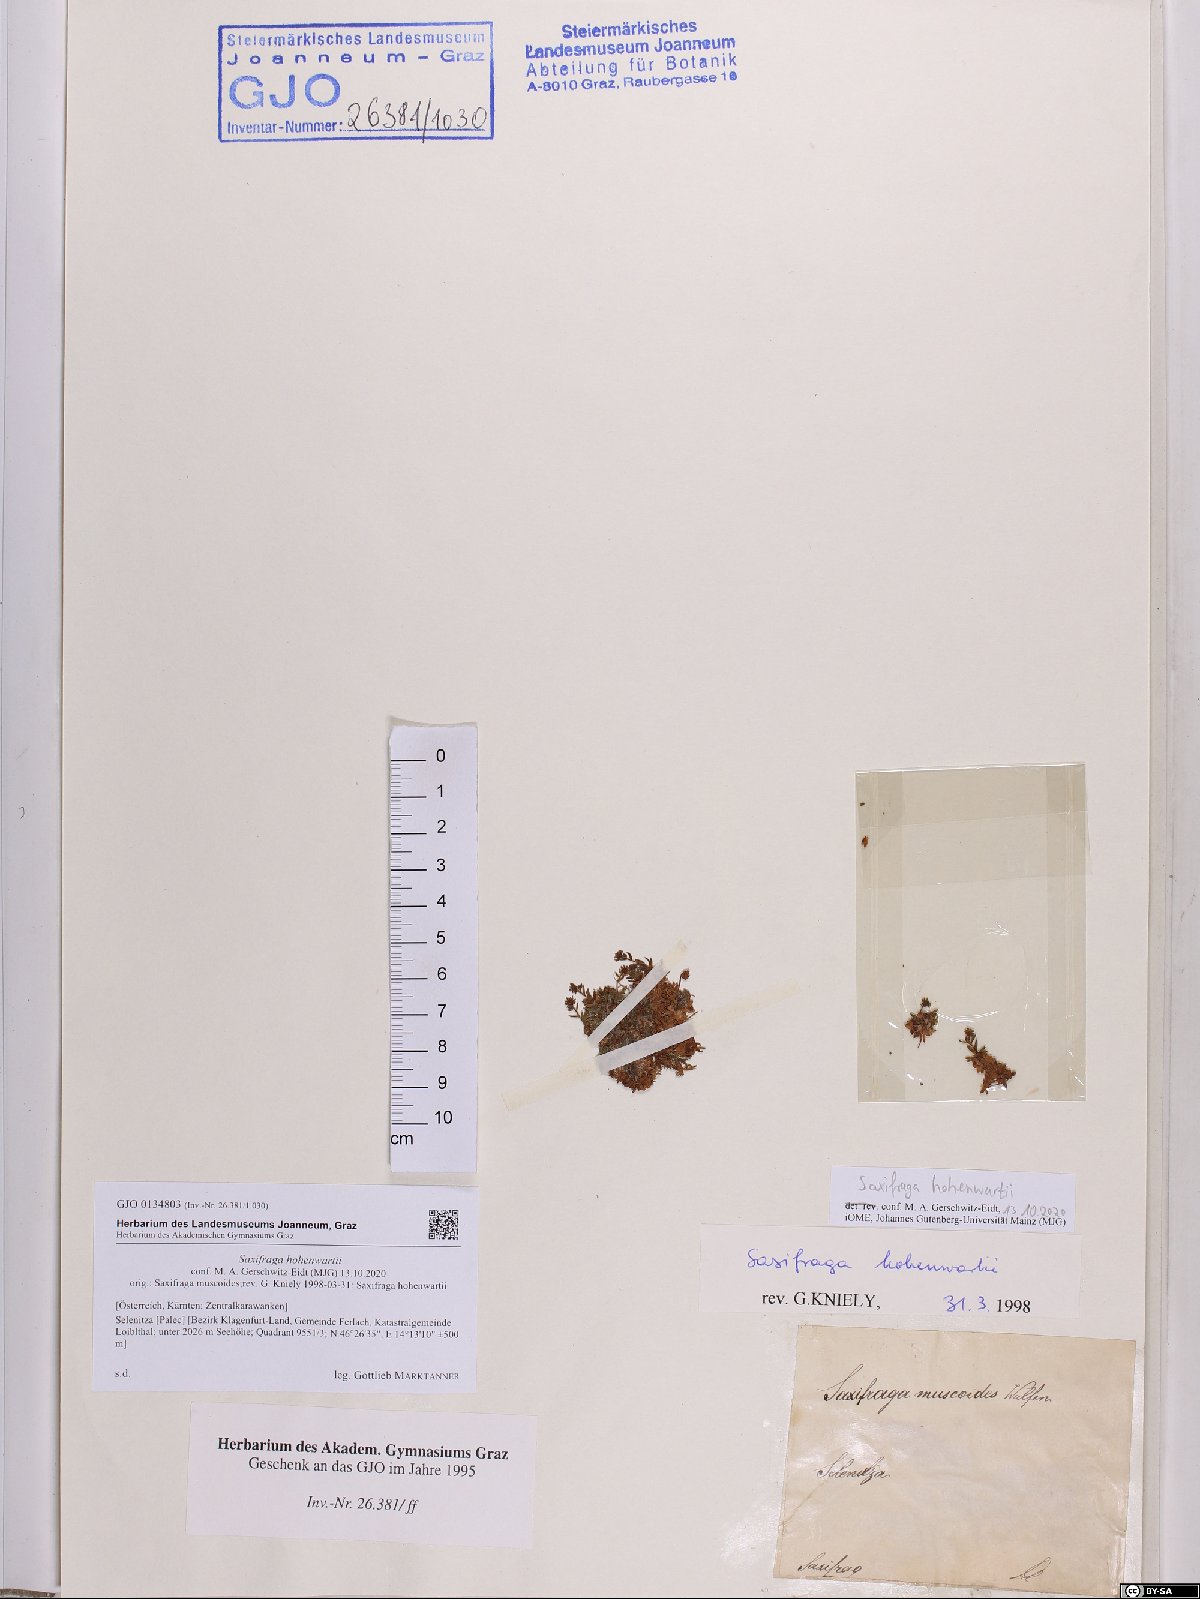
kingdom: Plantae
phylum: Tracheophyta
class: Magnoliopsida
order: Saxifragales
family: Saxifragaceae
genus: Saxifraga
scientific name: Saxifraga hohenwartii
